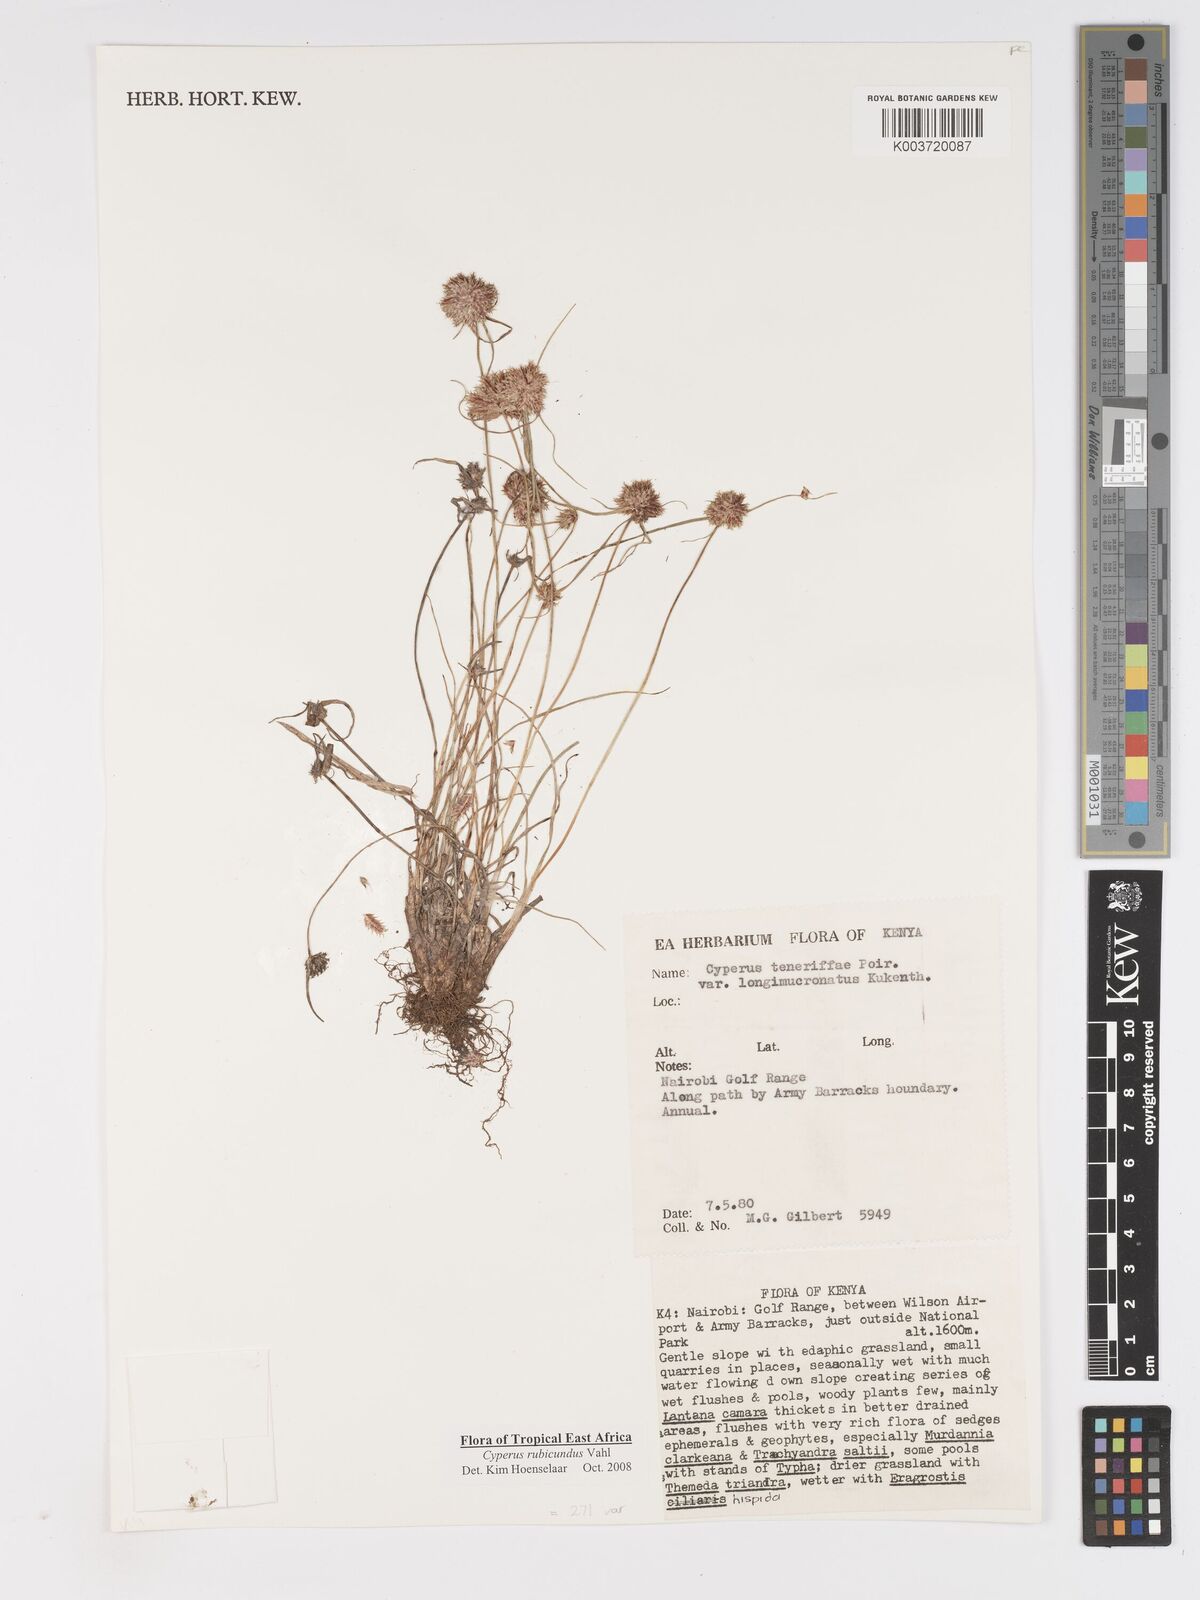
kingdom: Plantae
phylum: Tracheophyta
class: Liliopsida
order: Poales
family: Cyperaceae
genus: Cyperus
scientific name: Cyperus rubicundus
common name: Coco-grass
